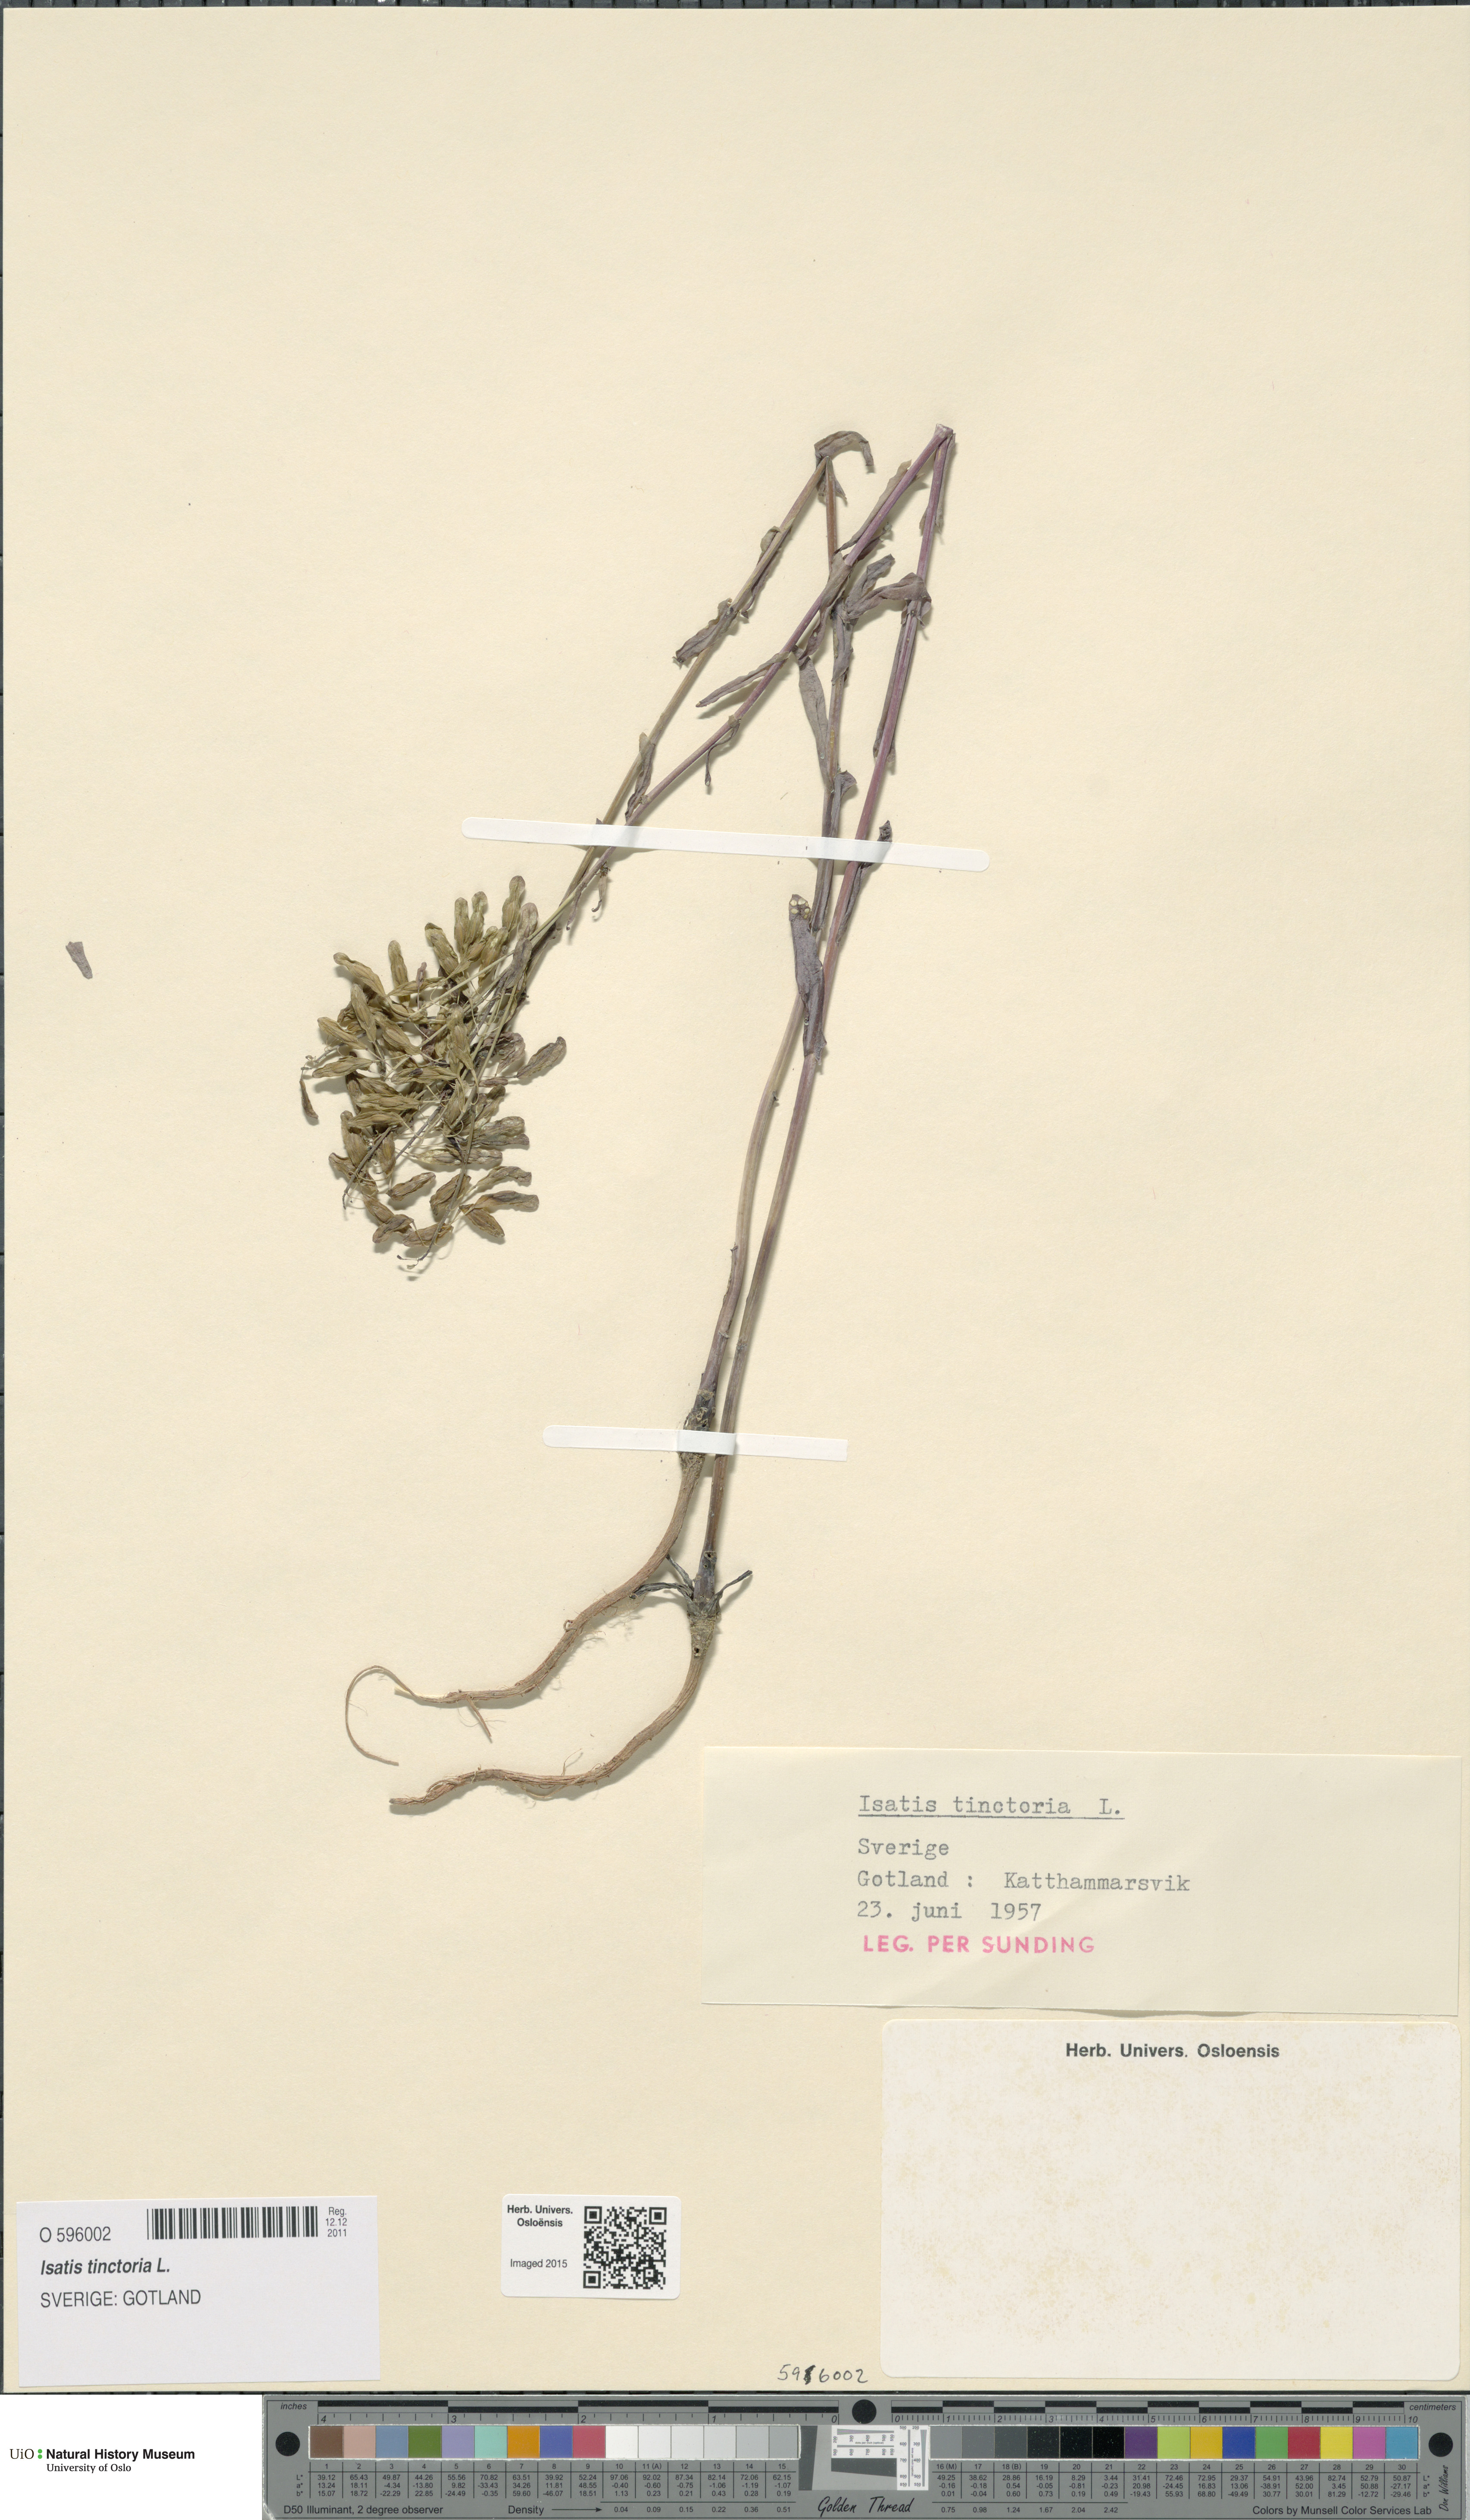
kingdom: Plantae
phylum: Tracheophyta
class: Magnoliopsida
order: Brassicales
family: Brassicaceae
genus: Isatis
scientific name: Isatis tinctoria
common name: Woad
